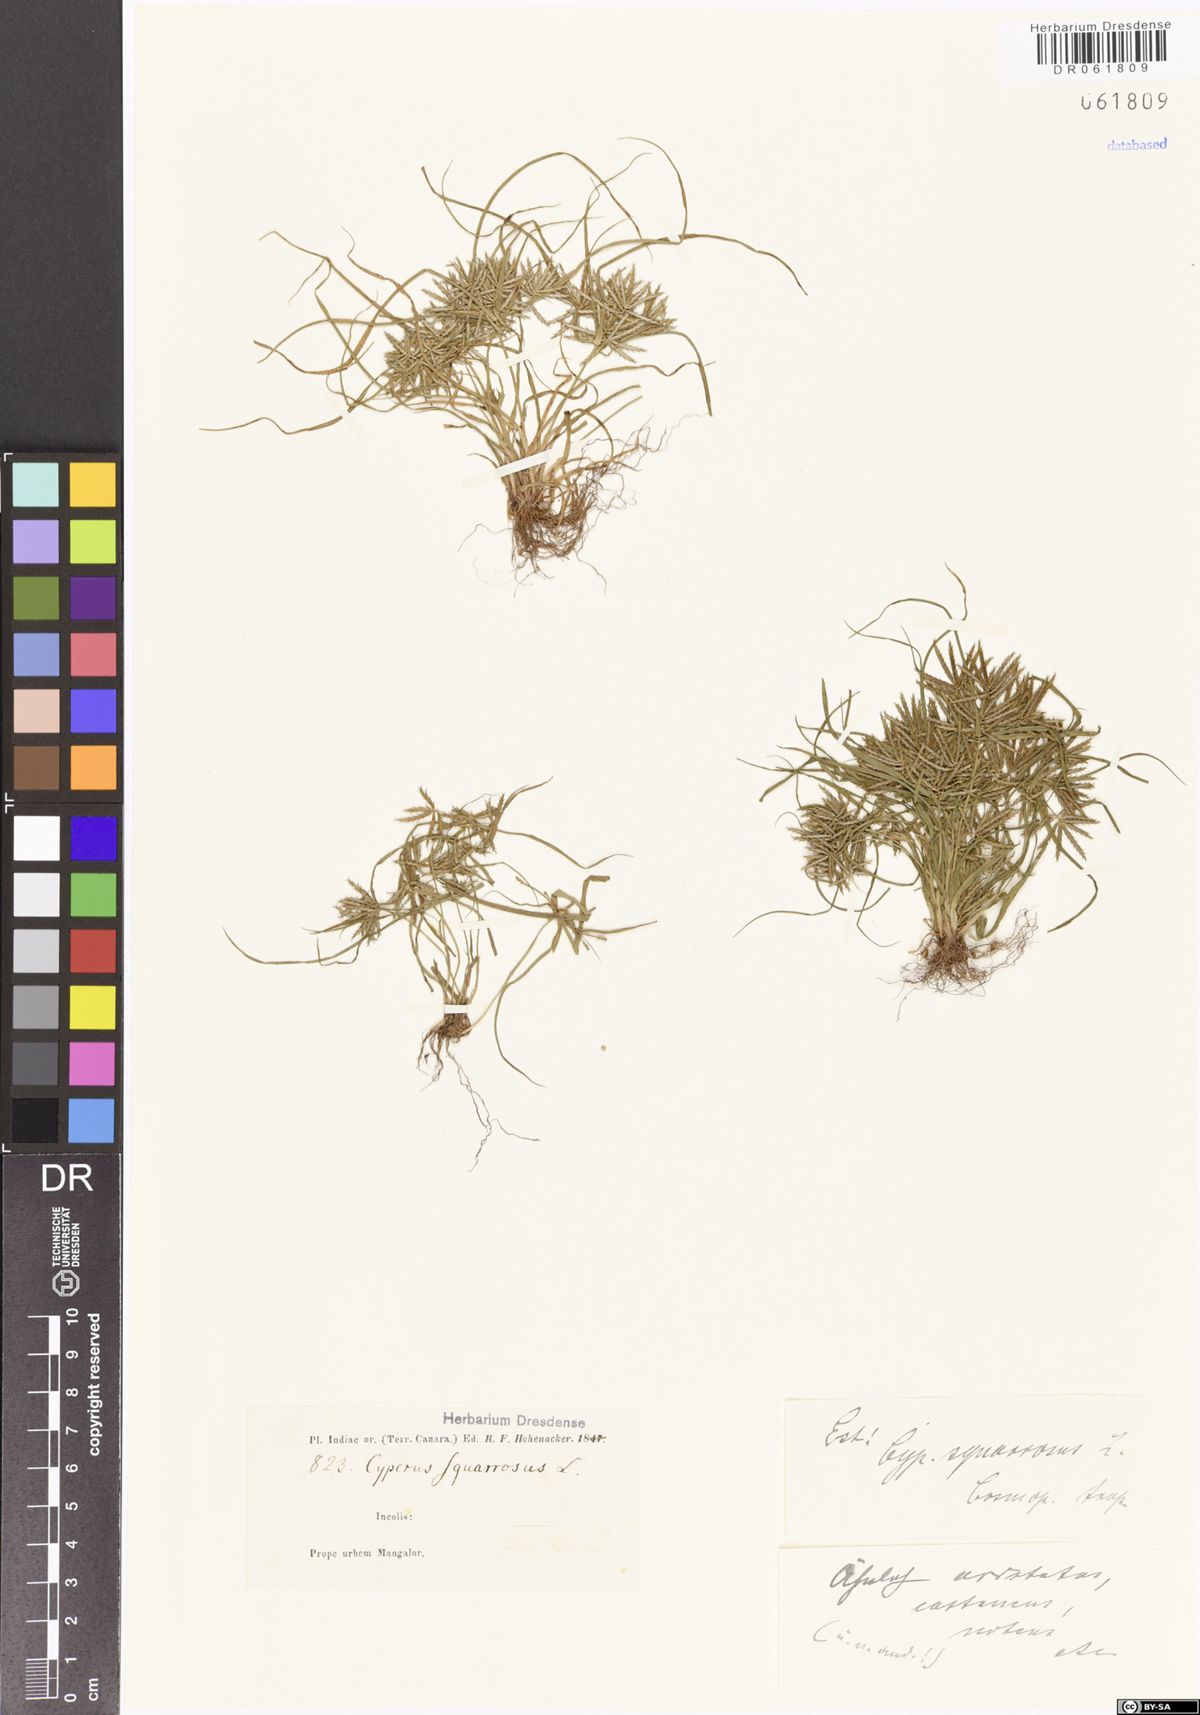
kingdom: Plantae
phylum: Tracheophyta
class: Liliopsida
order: Poales
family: Cyperaceae
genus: Cyperus
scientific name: Cyperus squarrosus
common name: Awned cyperus
